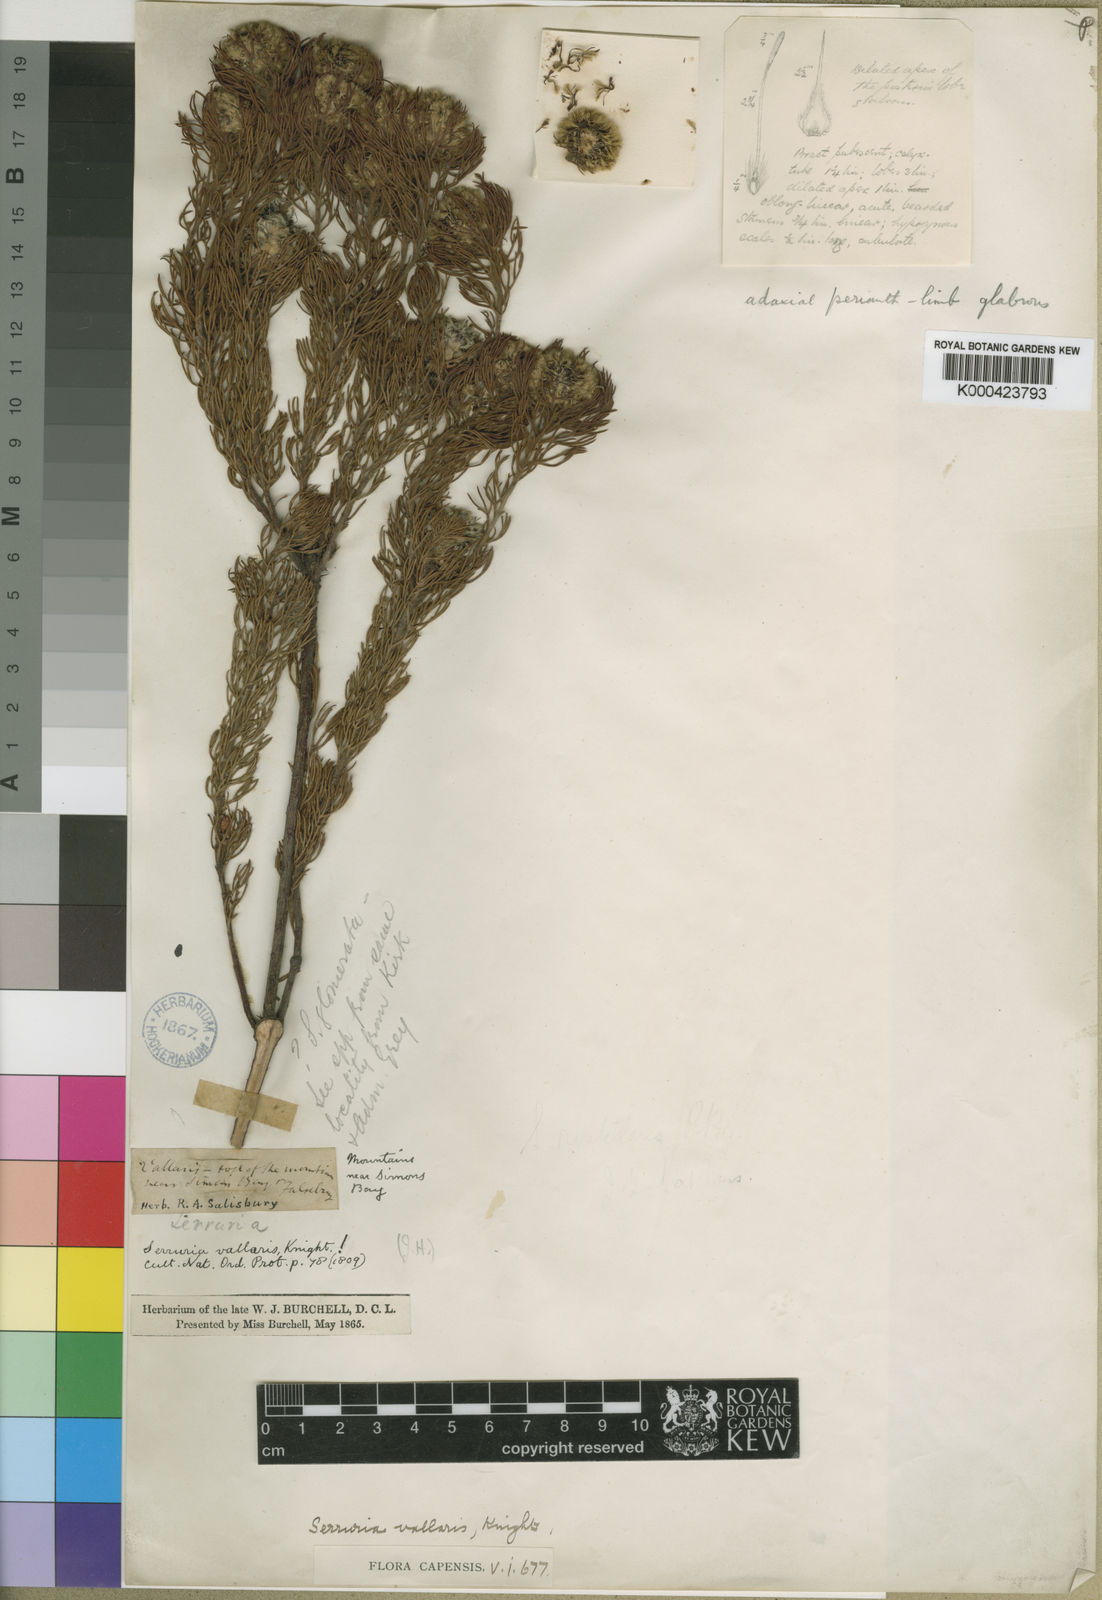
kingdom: Plantae
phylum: Tracheophyta
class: Magnoliopsida
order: Proteales
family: Proteaceae
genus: Serruria
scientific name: Serruria villosa
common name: Golden spiderhead
